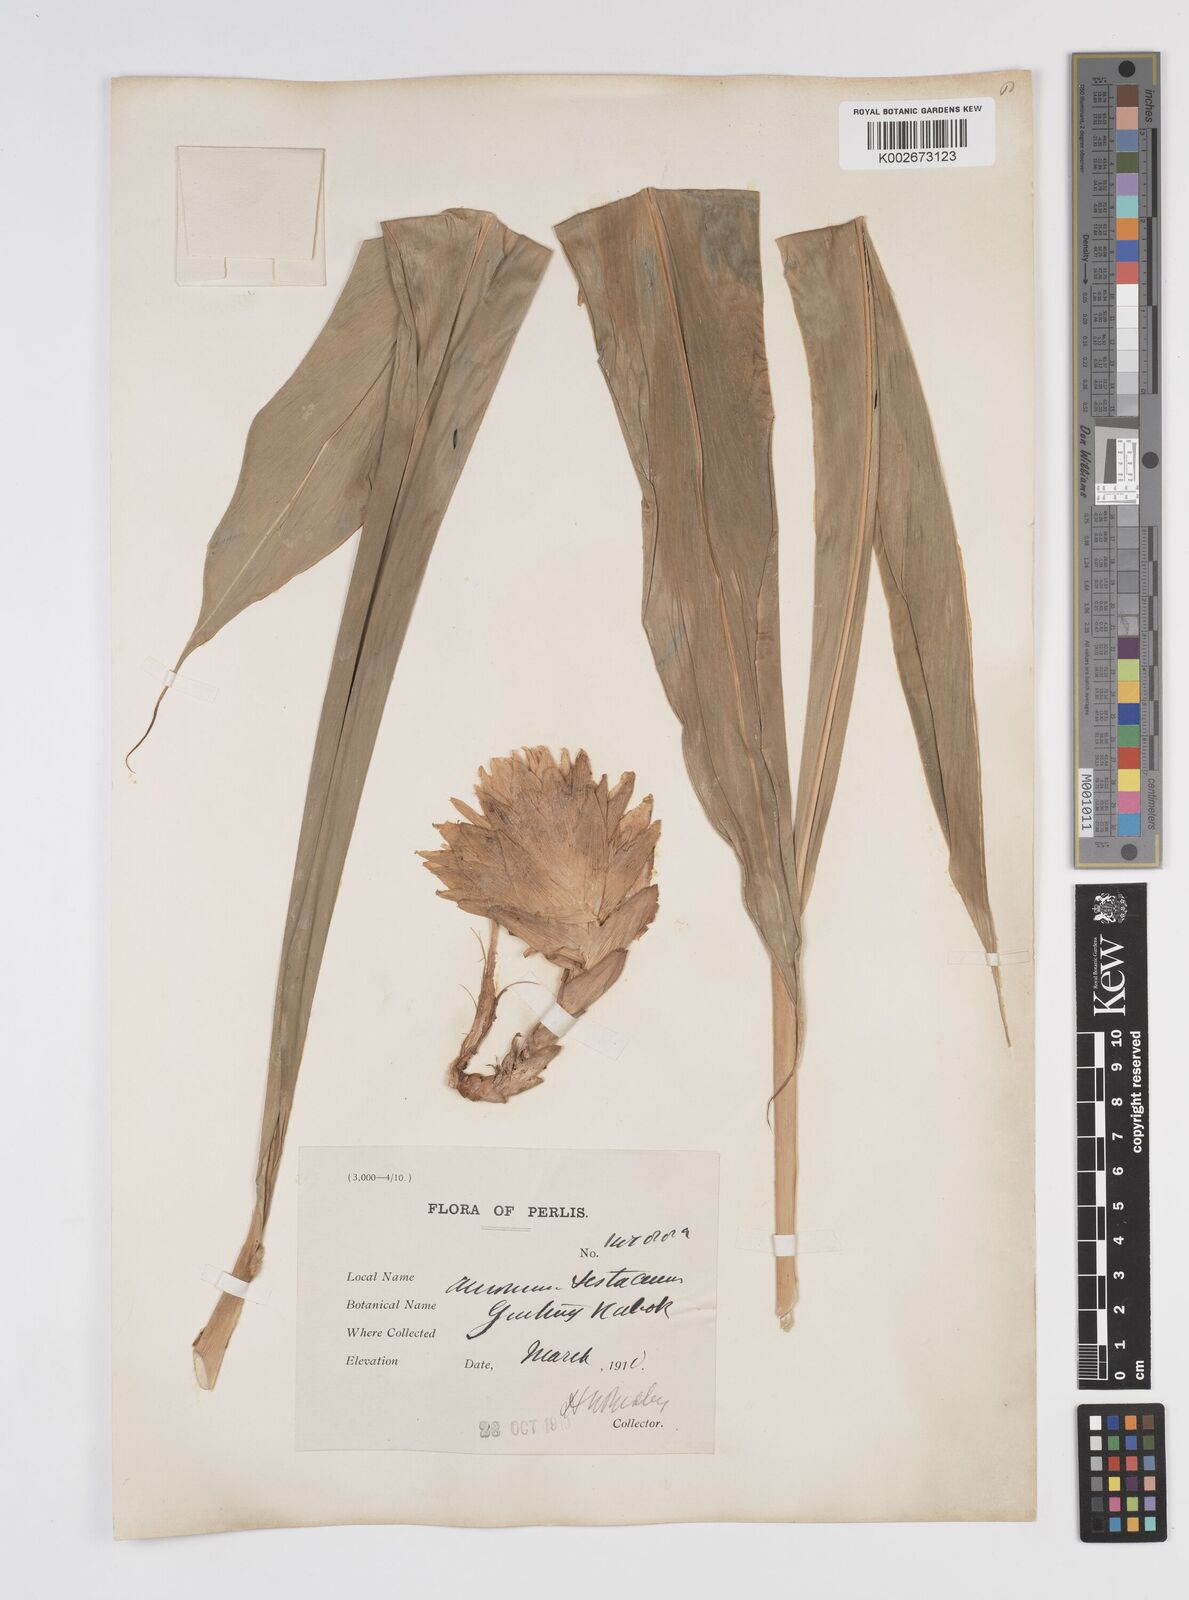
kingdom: Plantae
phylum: Tracheophyta
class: Liliopsida
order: Zingiberales
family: Zingiberaceae
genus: Wurfbainia
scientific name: Wurfbainia testacea
